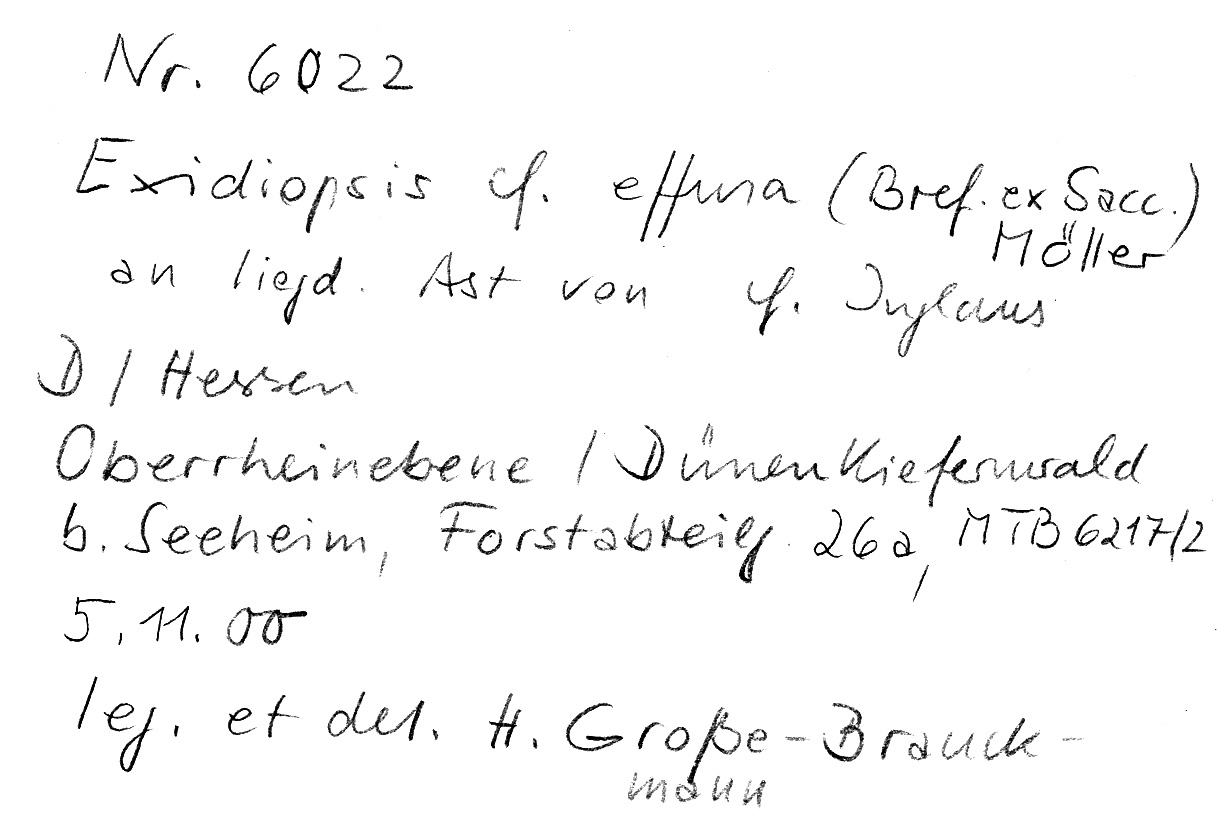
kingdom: Fungi
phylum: Basidiomycota
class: Agaricomycetes
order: Auriculariales
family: Auriculariaceae
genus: Exidiopsis
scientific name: Exidiopsis effusa
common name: Hair ice crust
